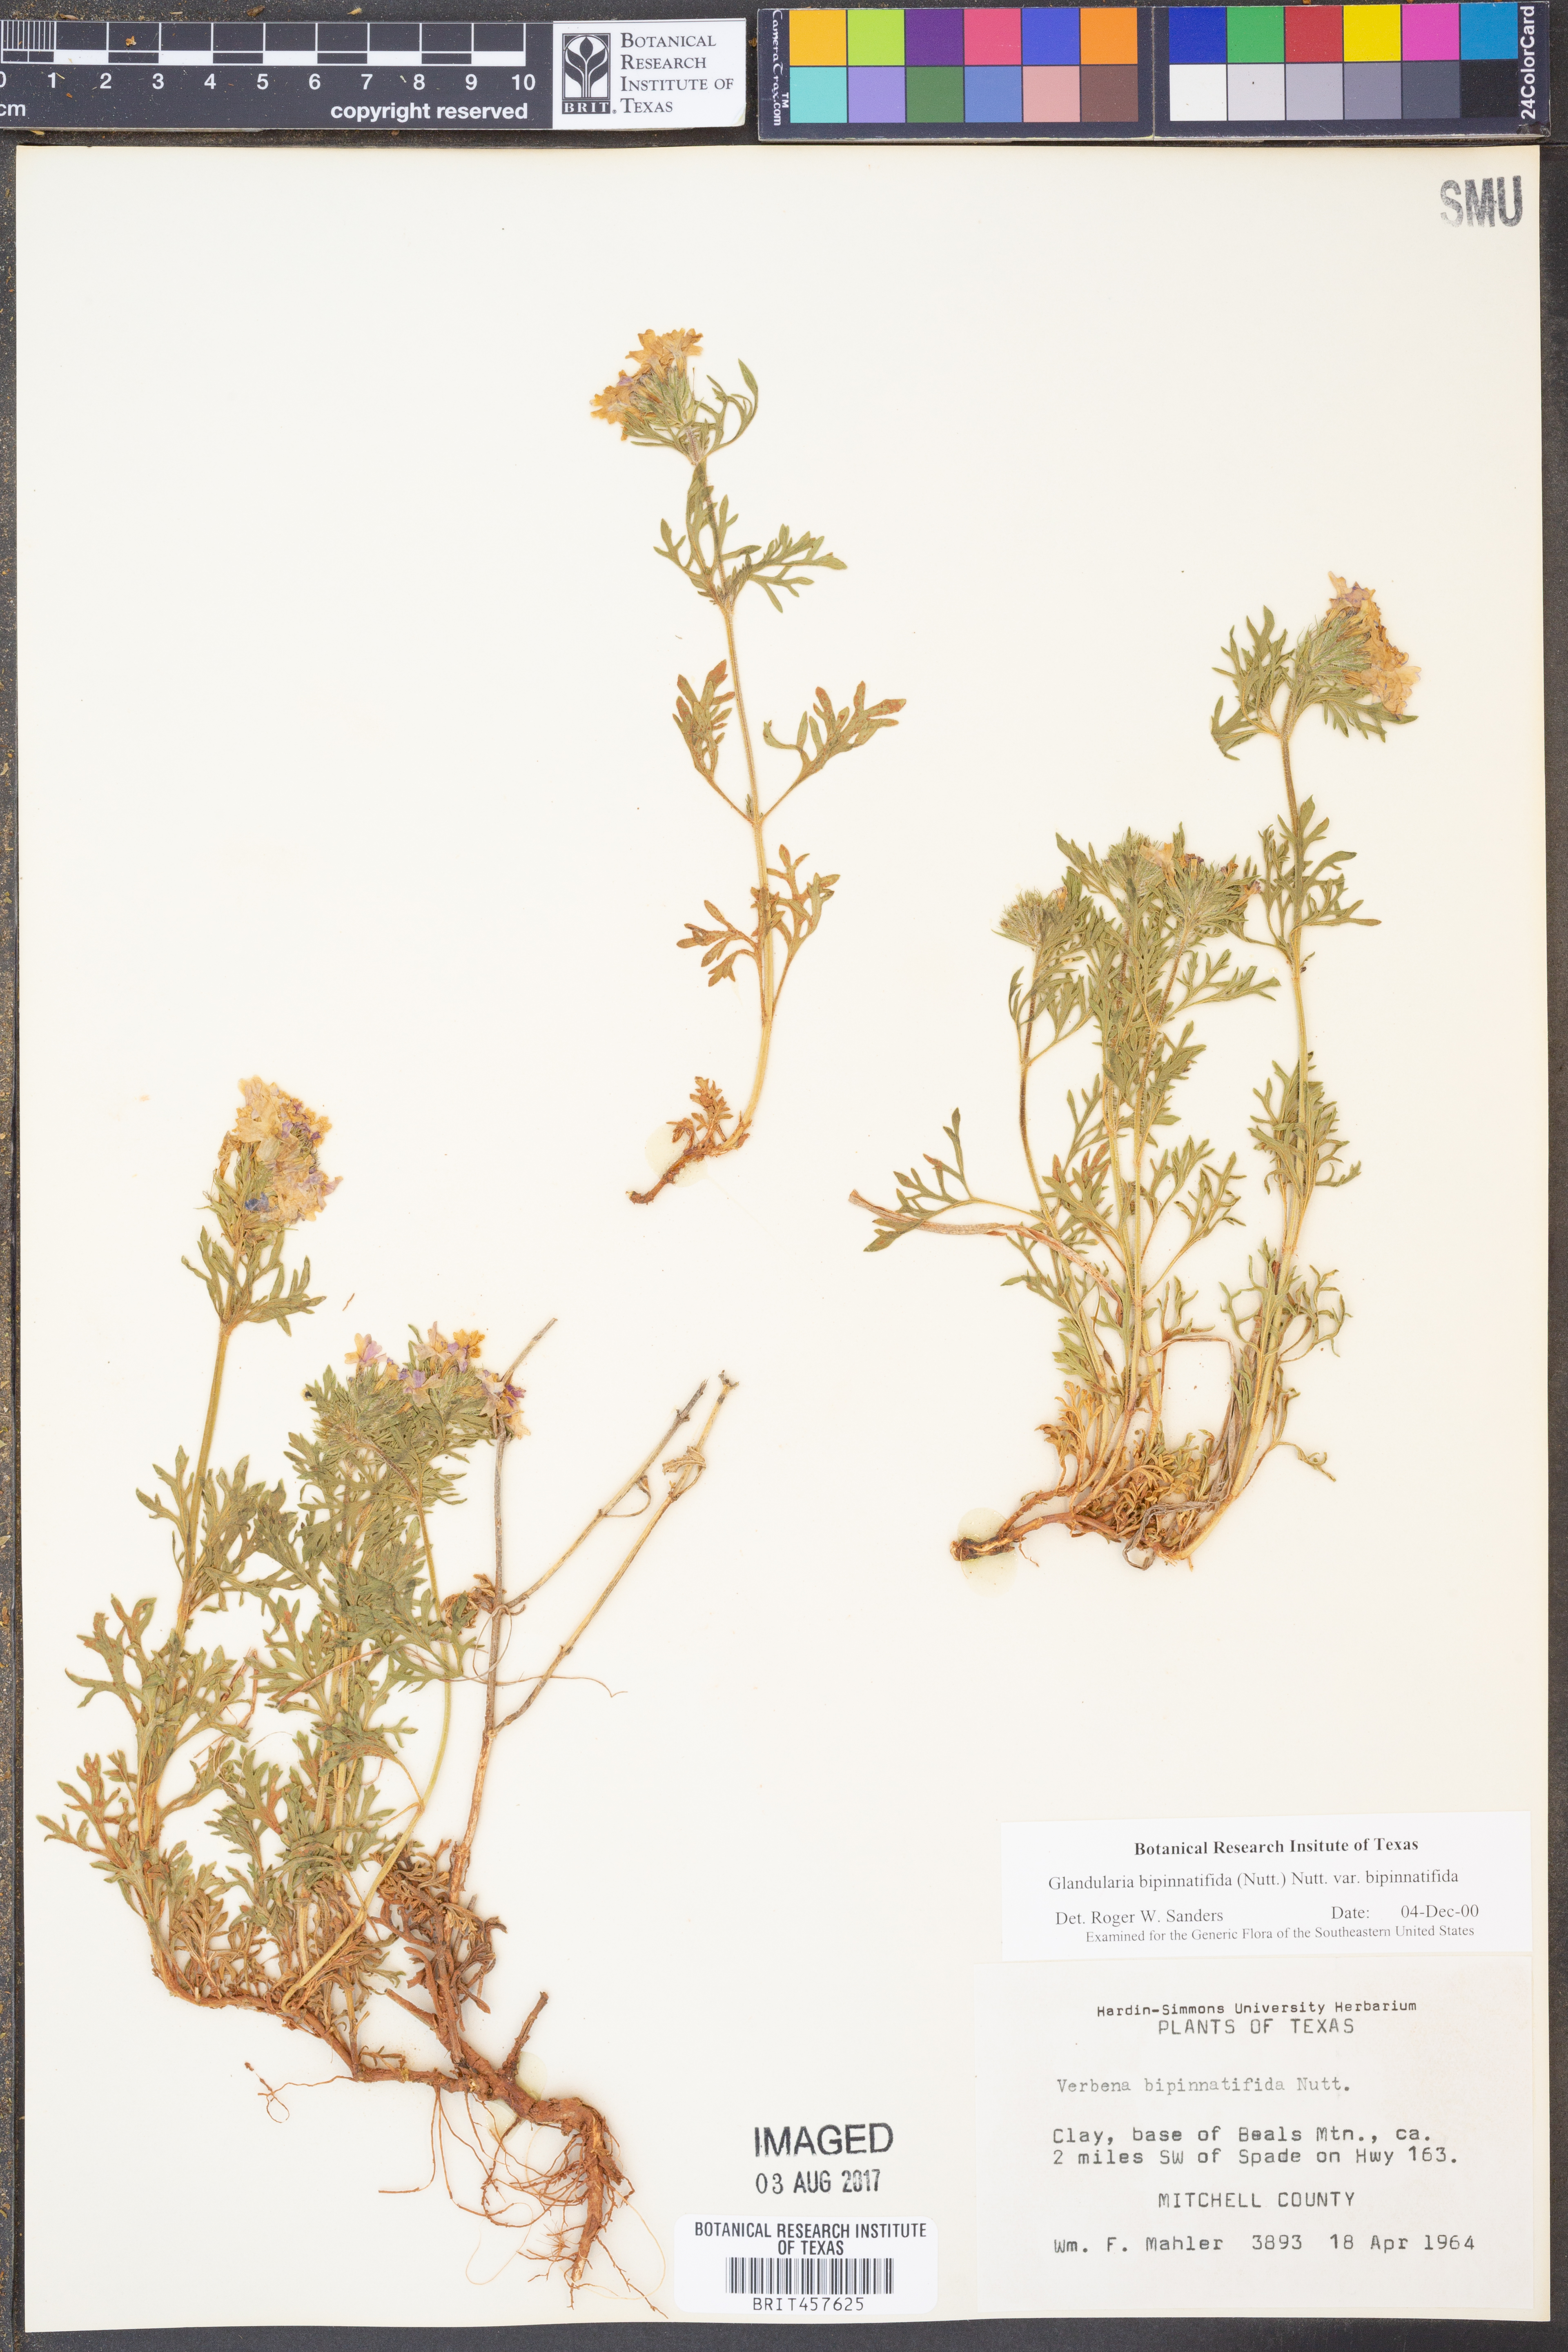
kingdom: Plantae
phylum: Tracheophyta
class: Magnoliopsida
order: Lamiales
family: Verbenaceae
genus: Verbena
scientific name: Verbena bipinnatifida
